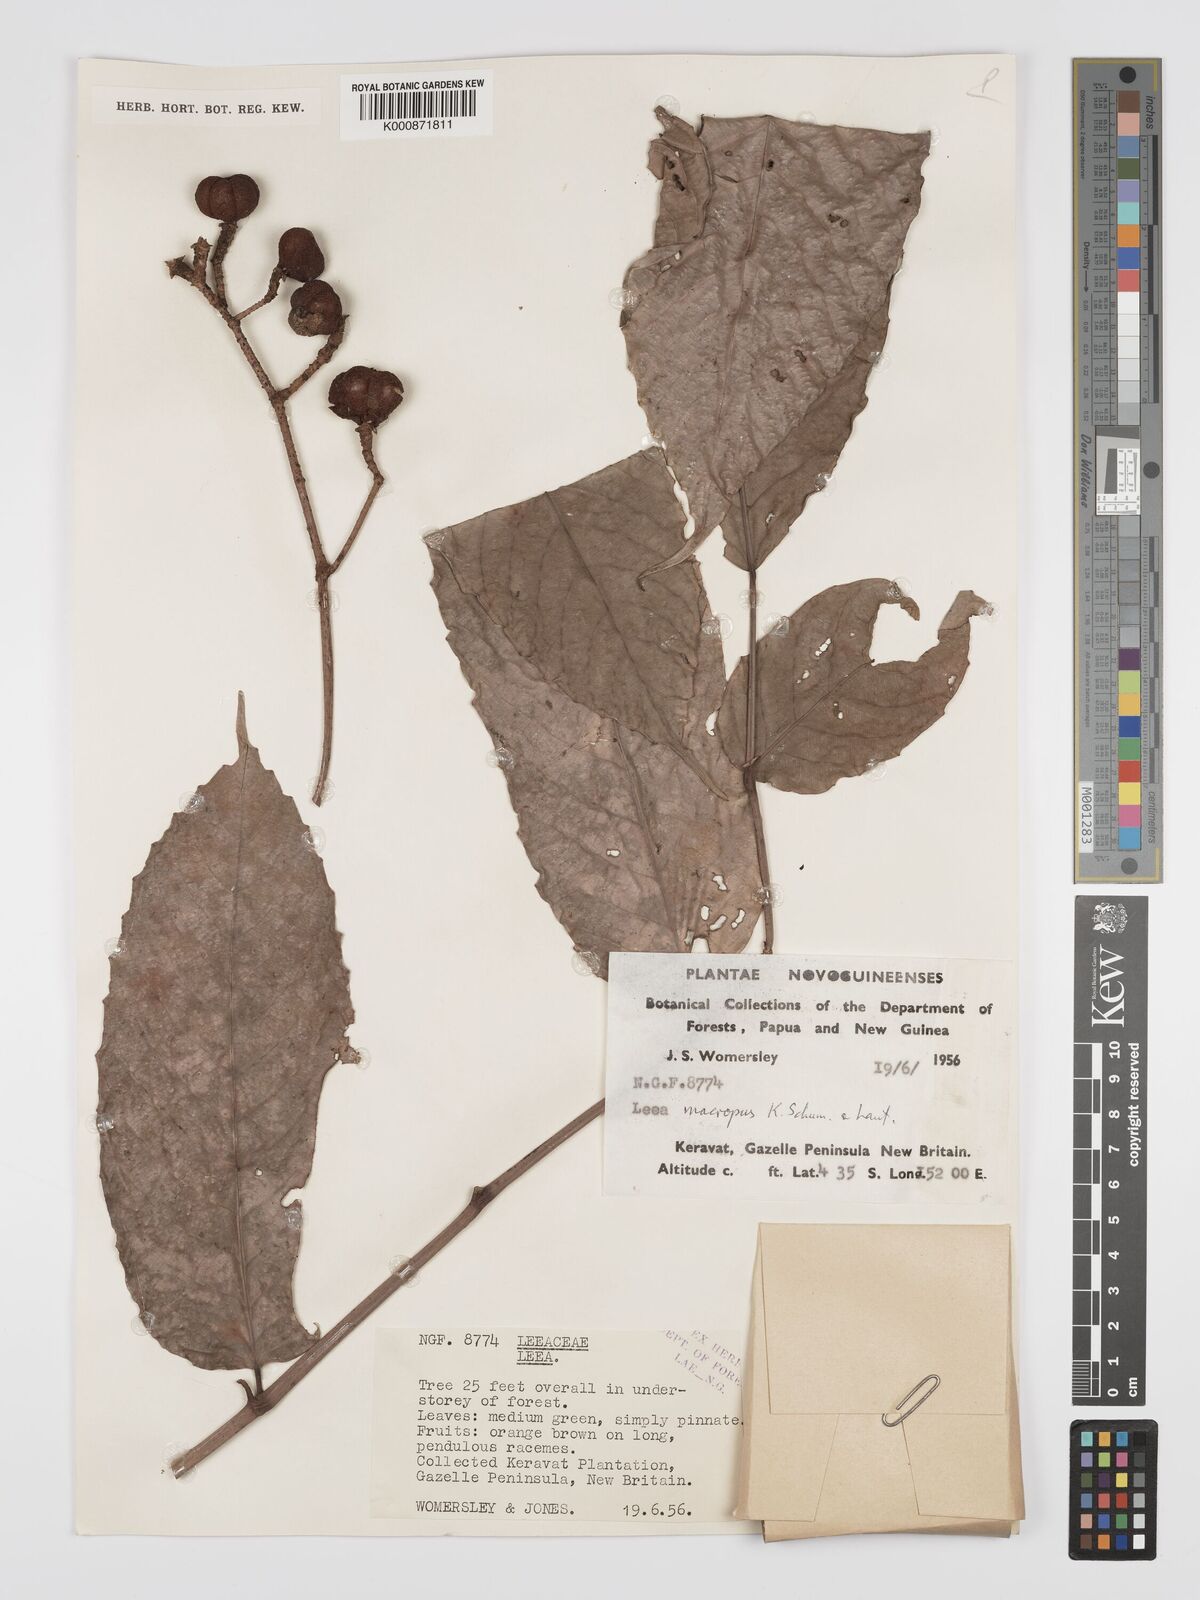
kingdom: Plantae
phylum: Tracheophyta
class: Magnoliopsida
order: Vitales
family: Vitaceae
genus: Leea
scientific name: Leea macropus
